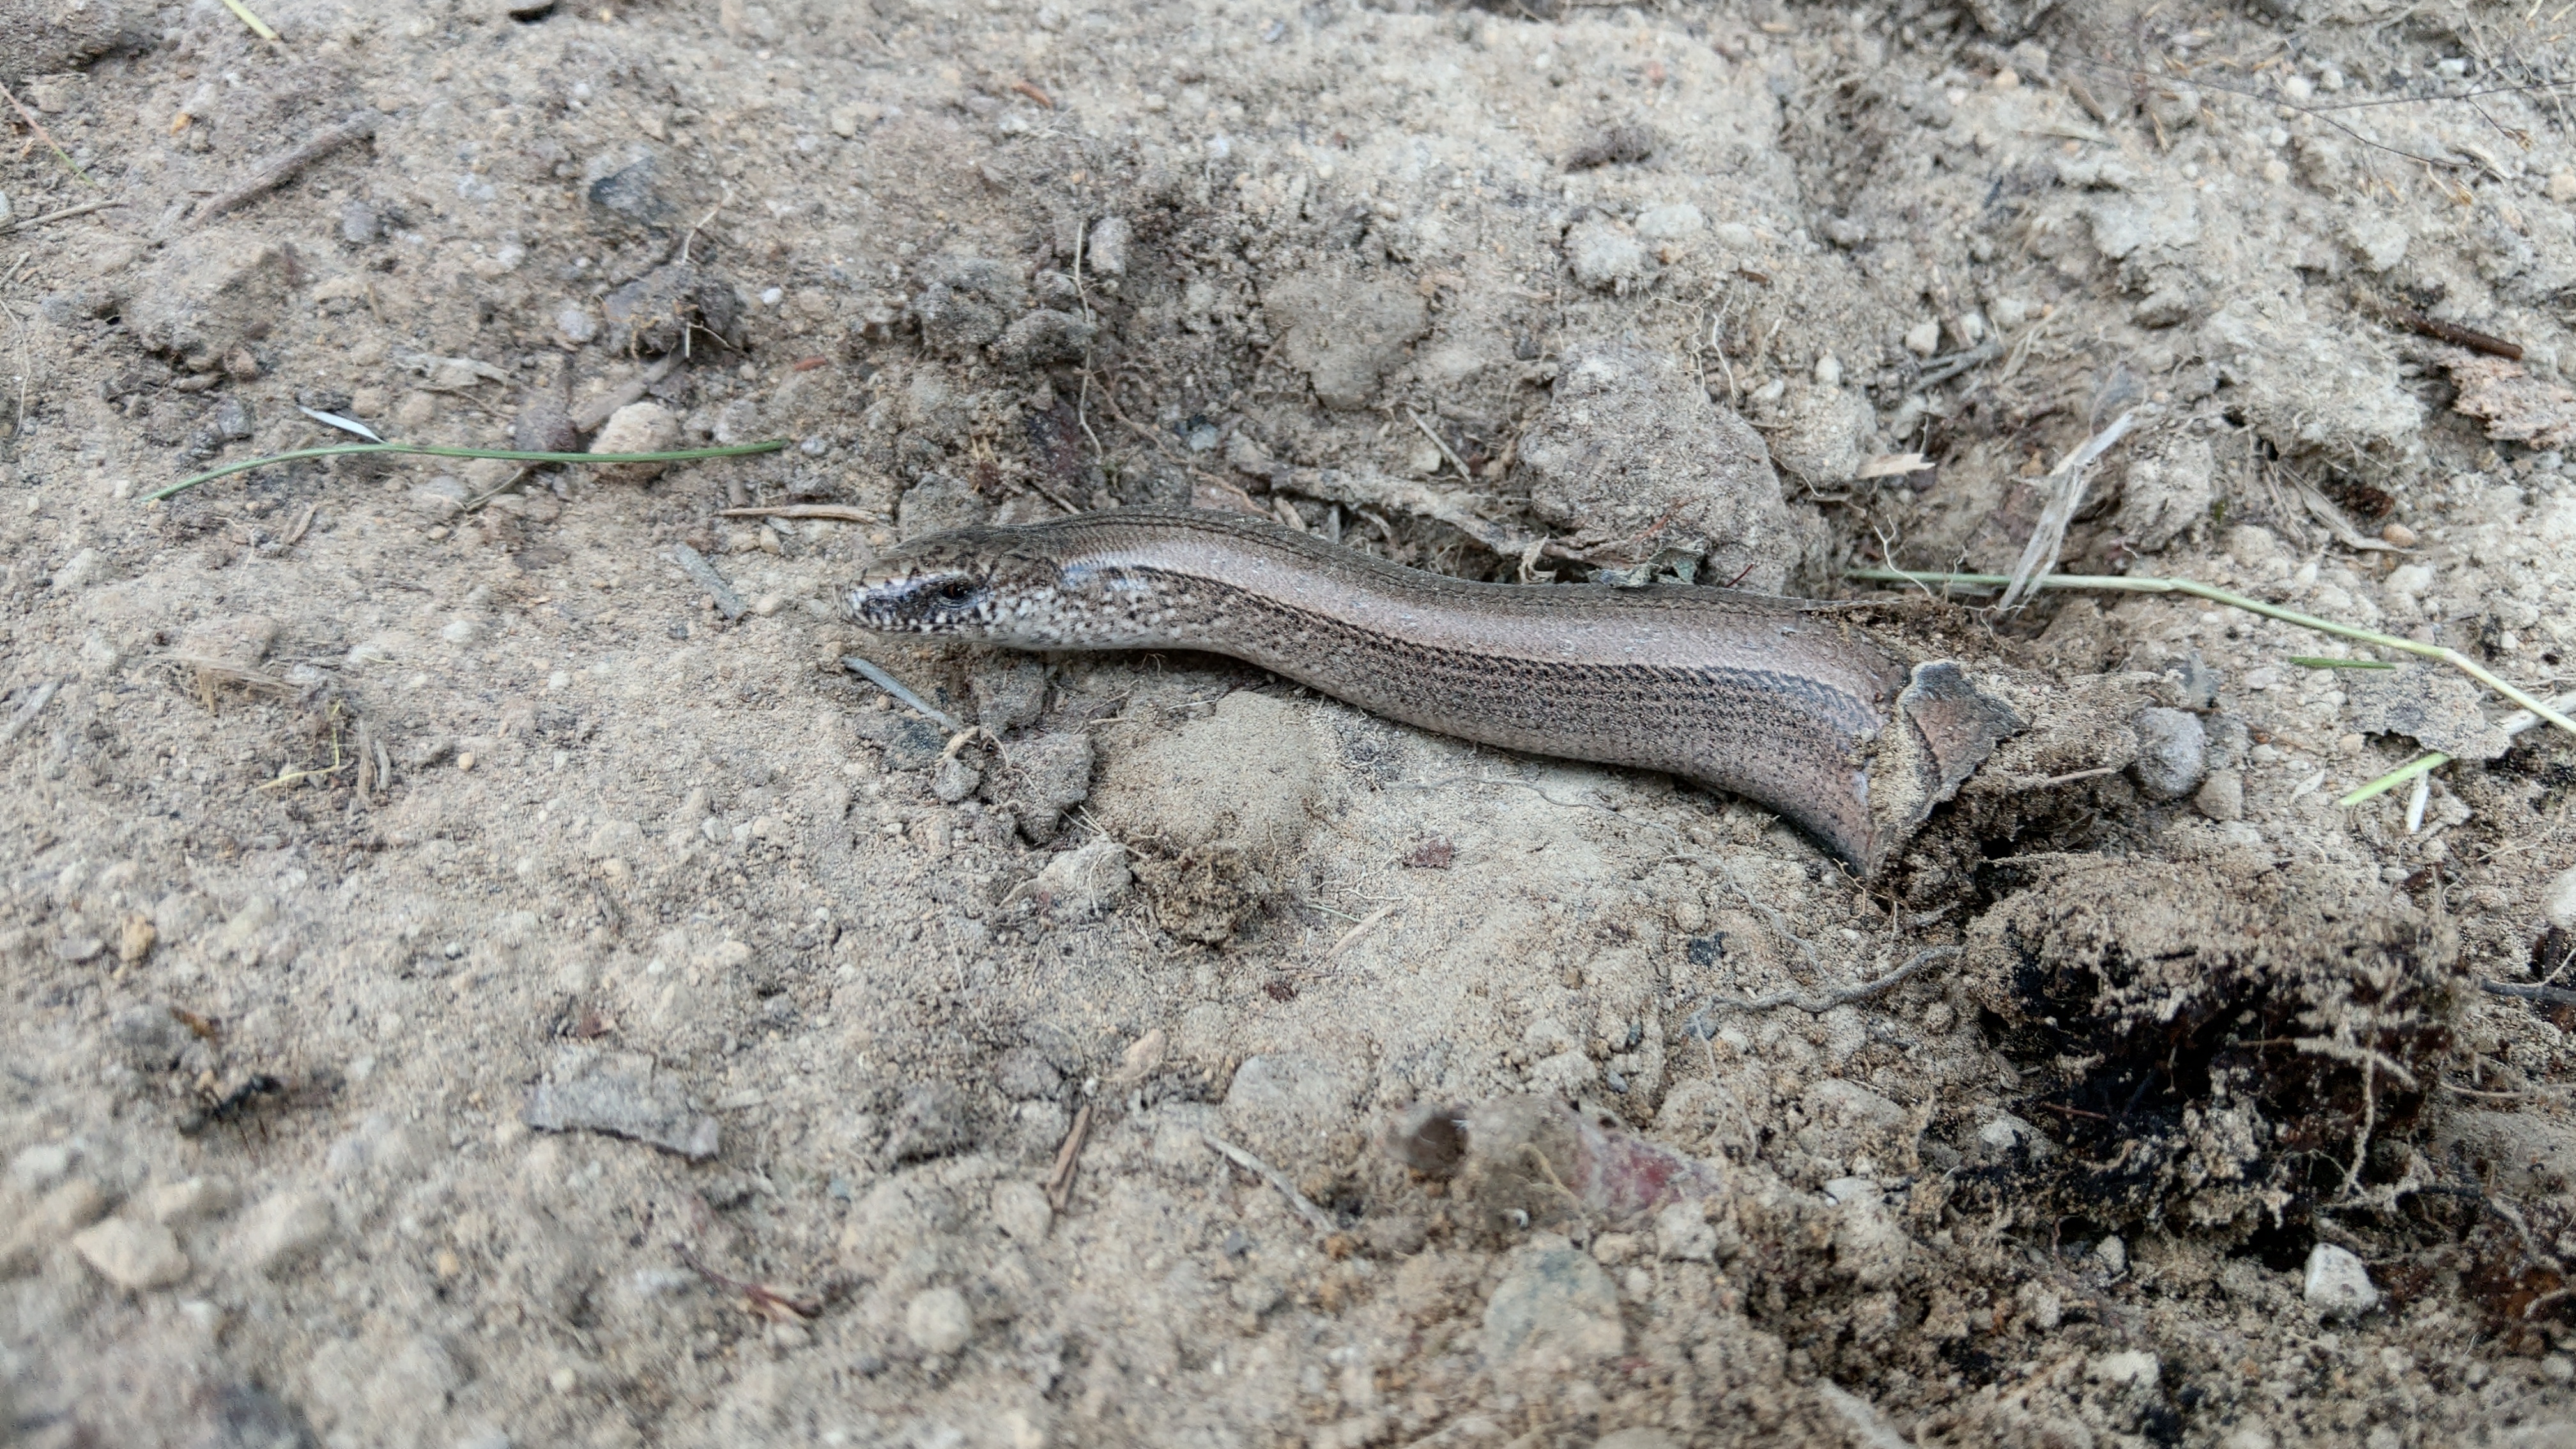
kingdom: Animalia
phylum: Chordata
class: Squamata
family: Anguidae
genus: Anguis
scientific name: Anguis colchica
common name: Slow worm
